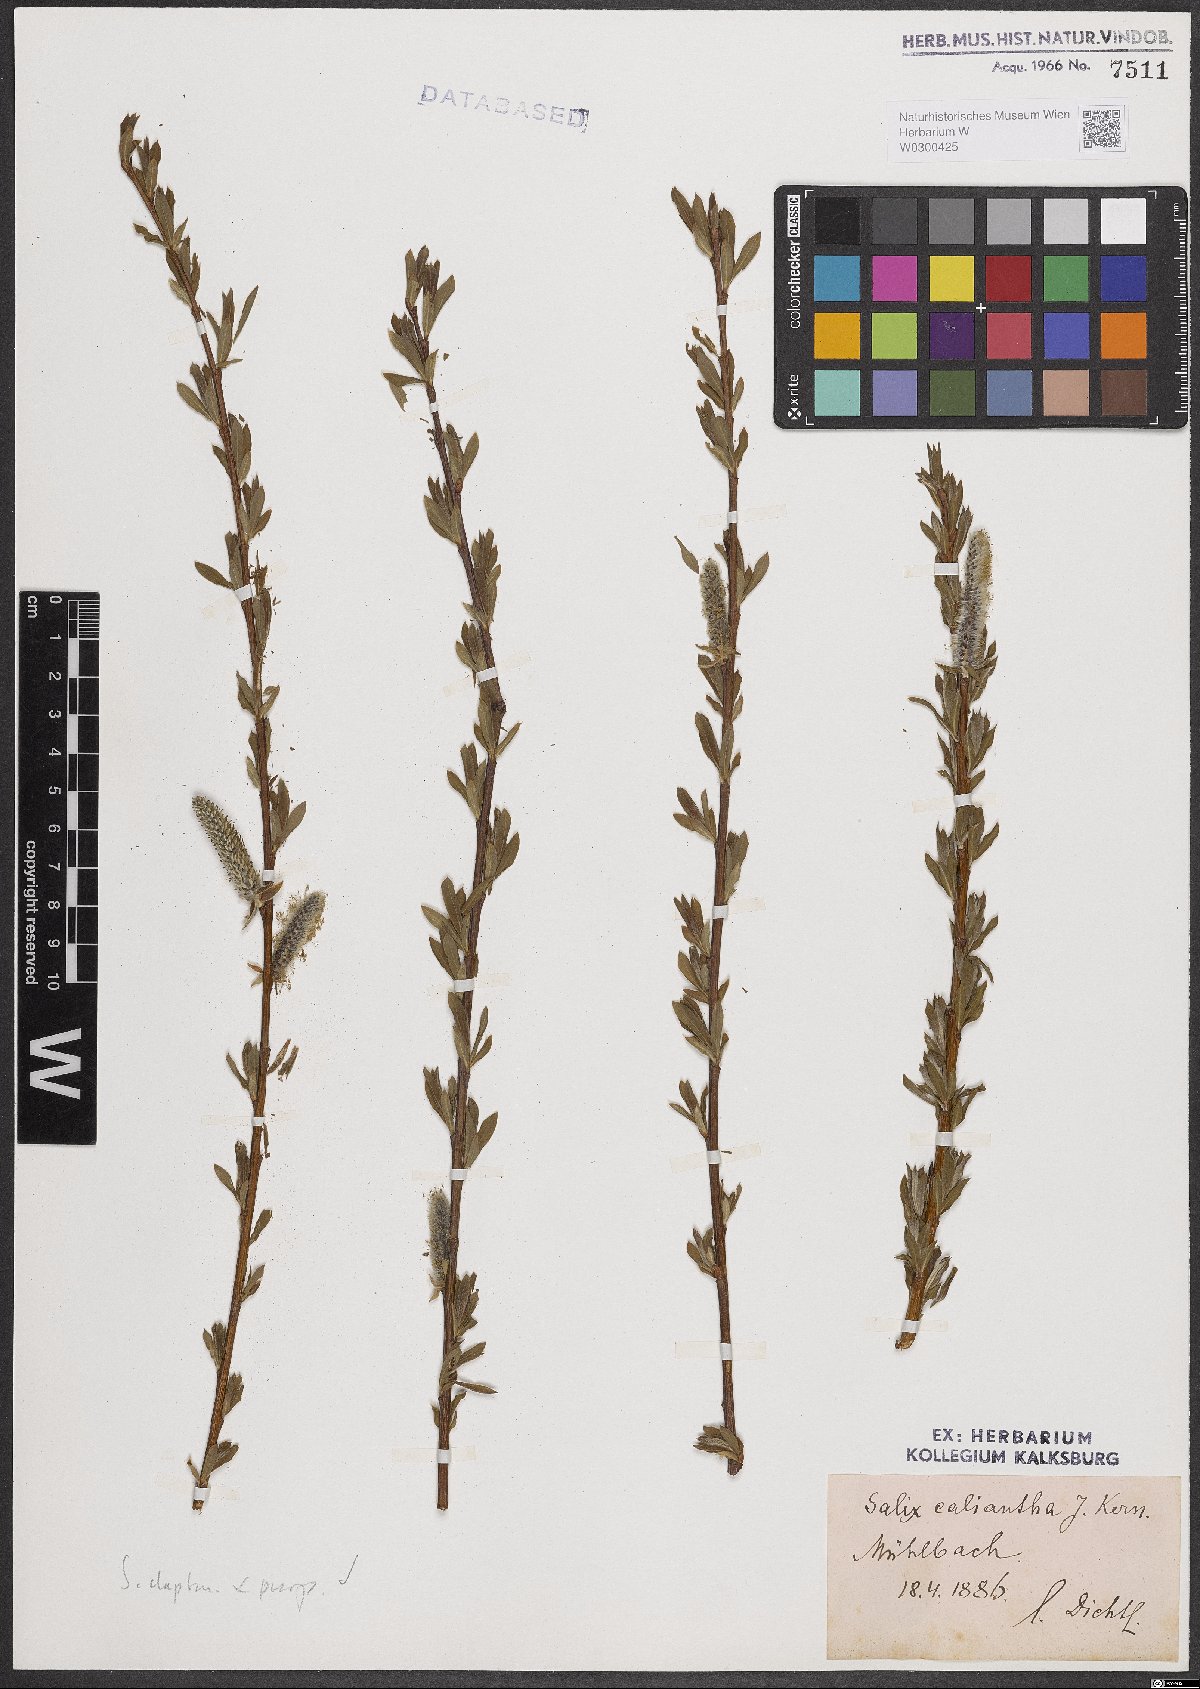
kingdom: Plantae
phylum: Tracheophyta
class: Magnoliopsida
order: Malpighiales
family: Salicaceae
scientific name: Salicaceae
